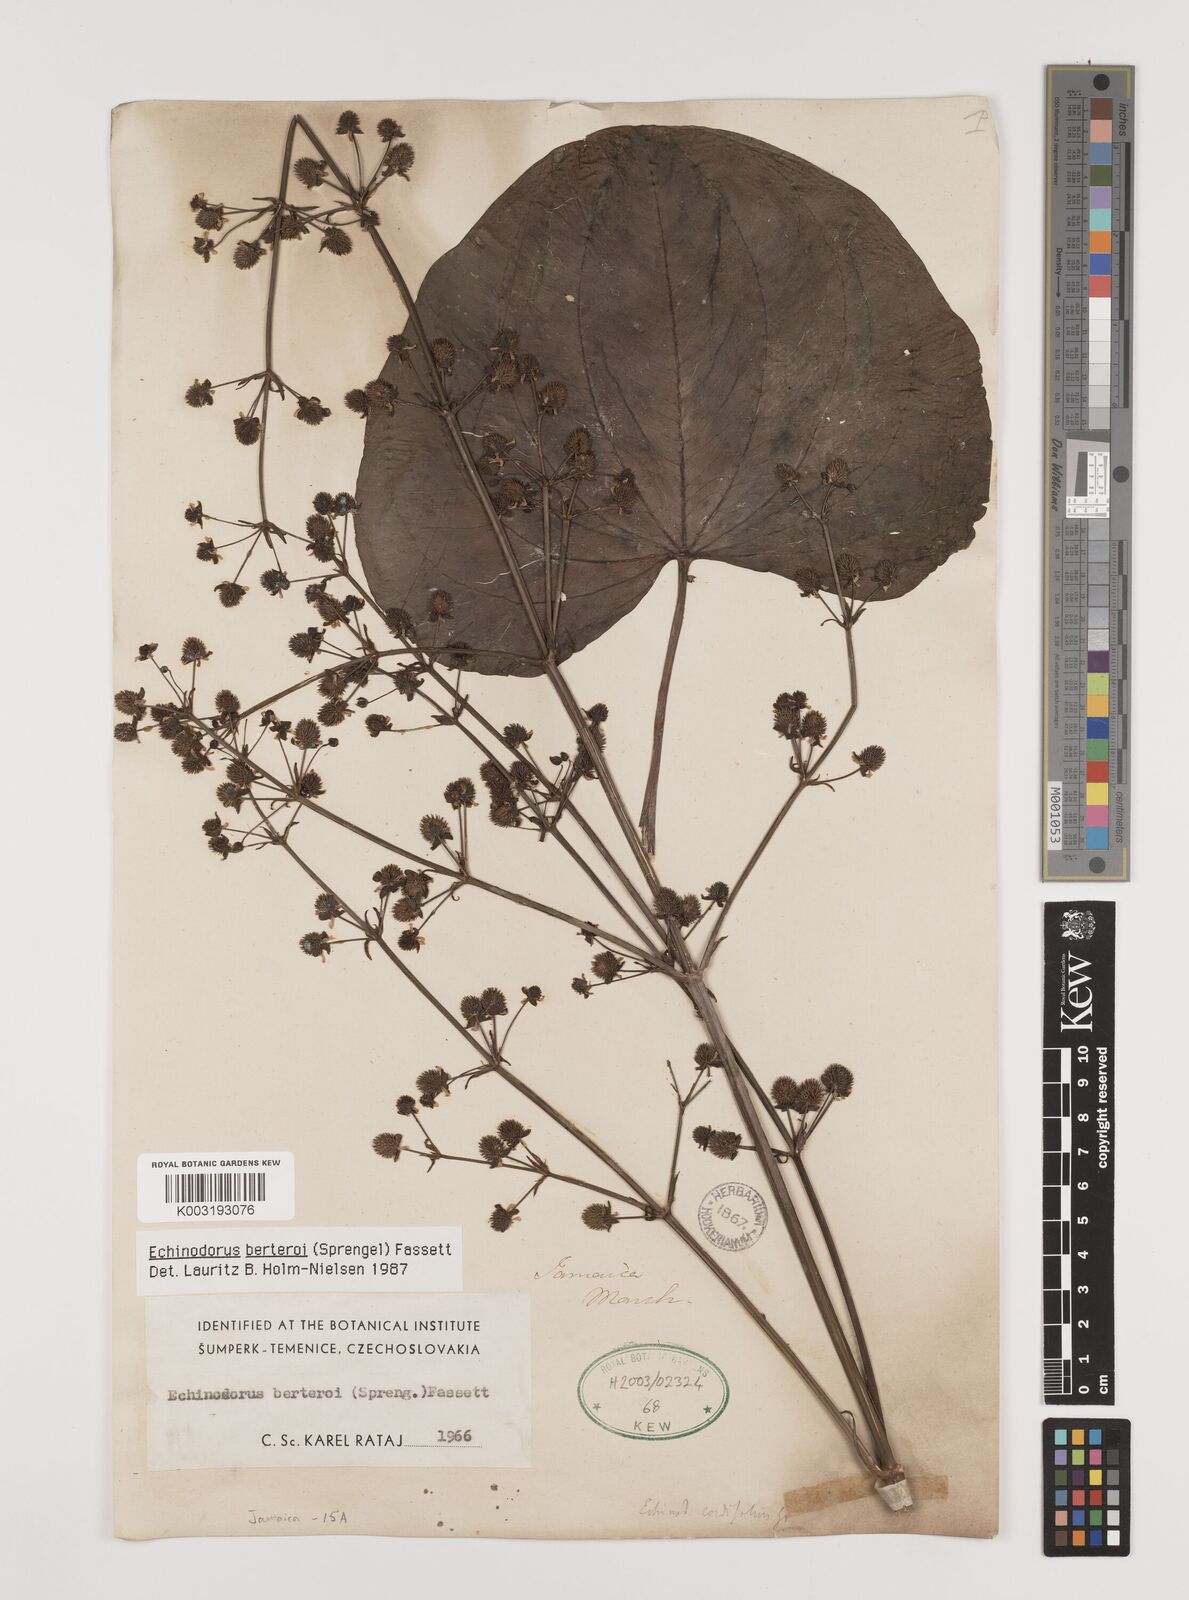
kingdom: Plantae
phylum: Tracheophyta
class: Liliopsida
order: Alismatales
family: Alismataceae
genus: Echinodorus
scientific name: Echinodorus berteroi
